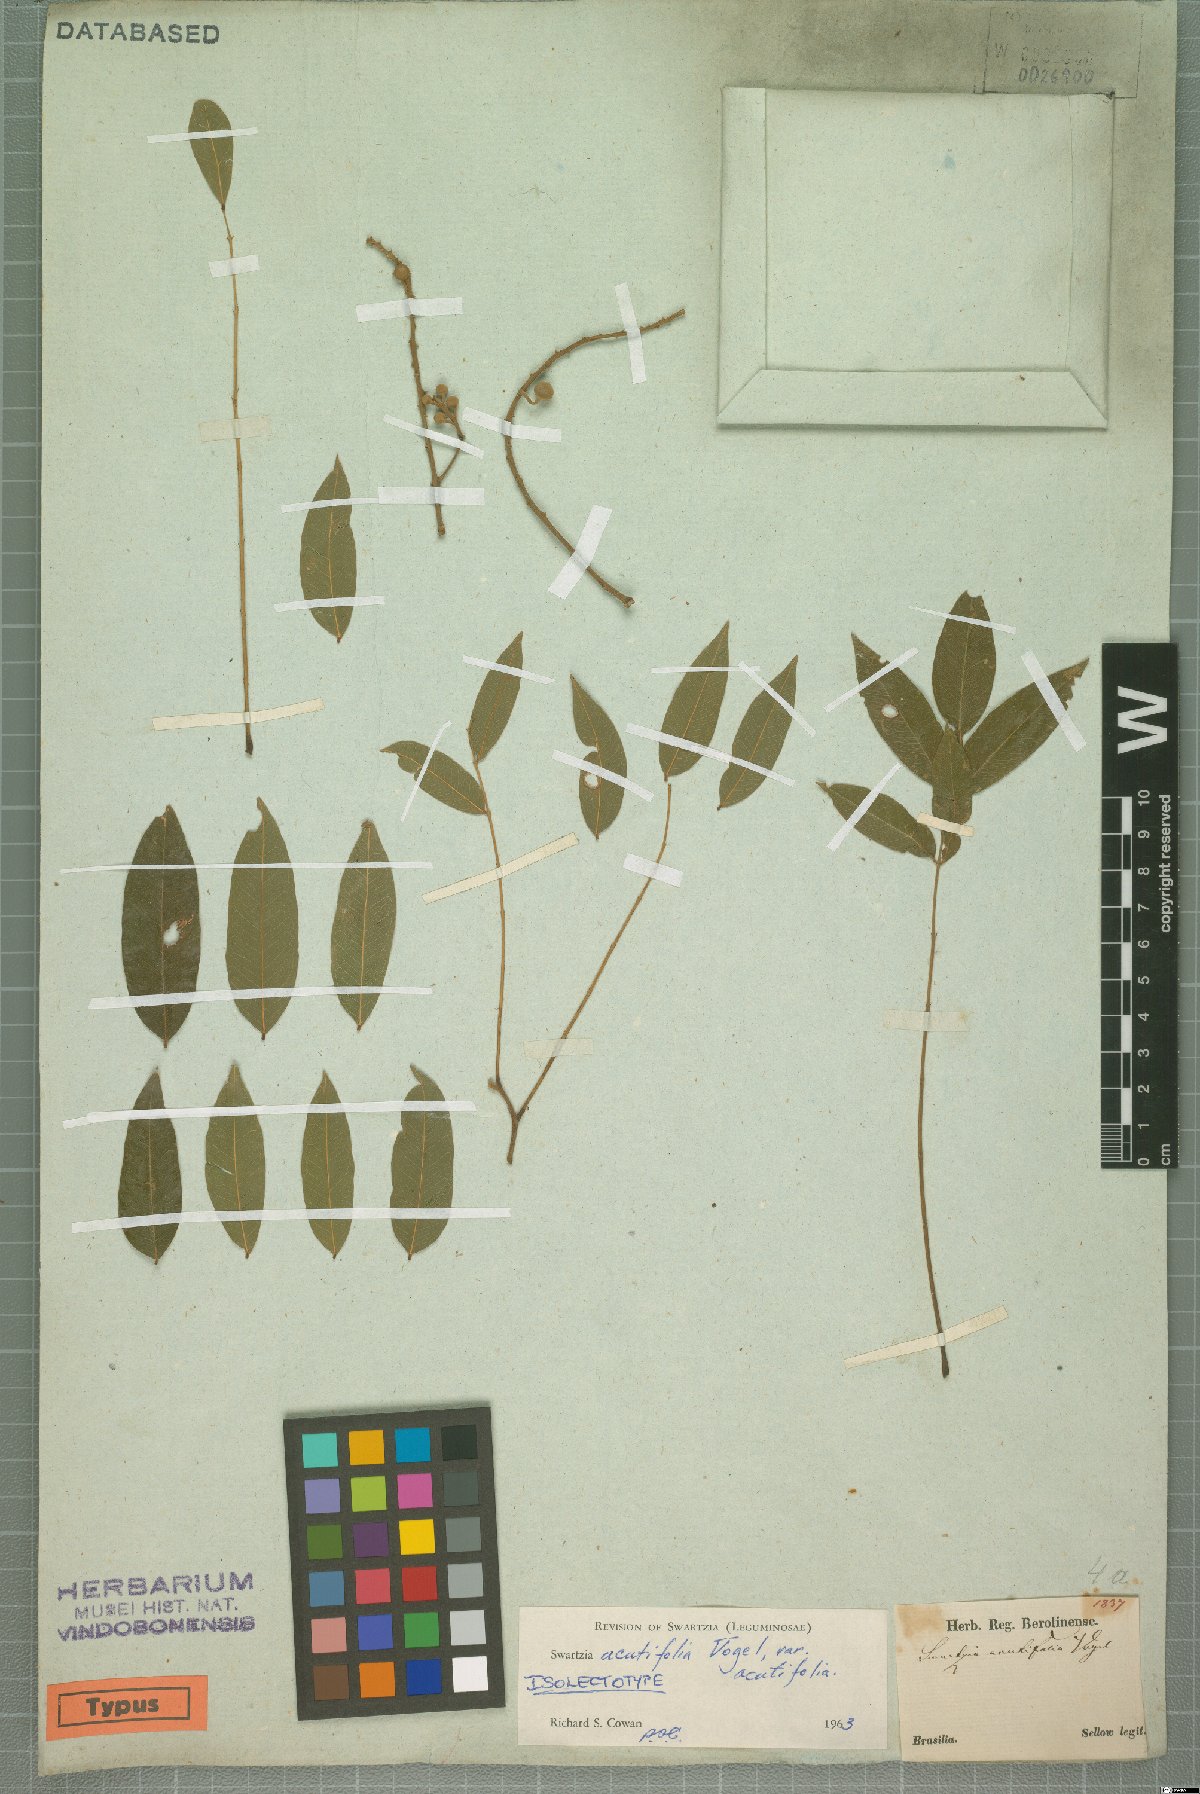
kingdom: Plantae
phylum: Tracheophyta
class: Magnoliopsida
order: Fabales
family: Fabaceae
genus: Swartzia
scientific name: Swartzia acutifolia
